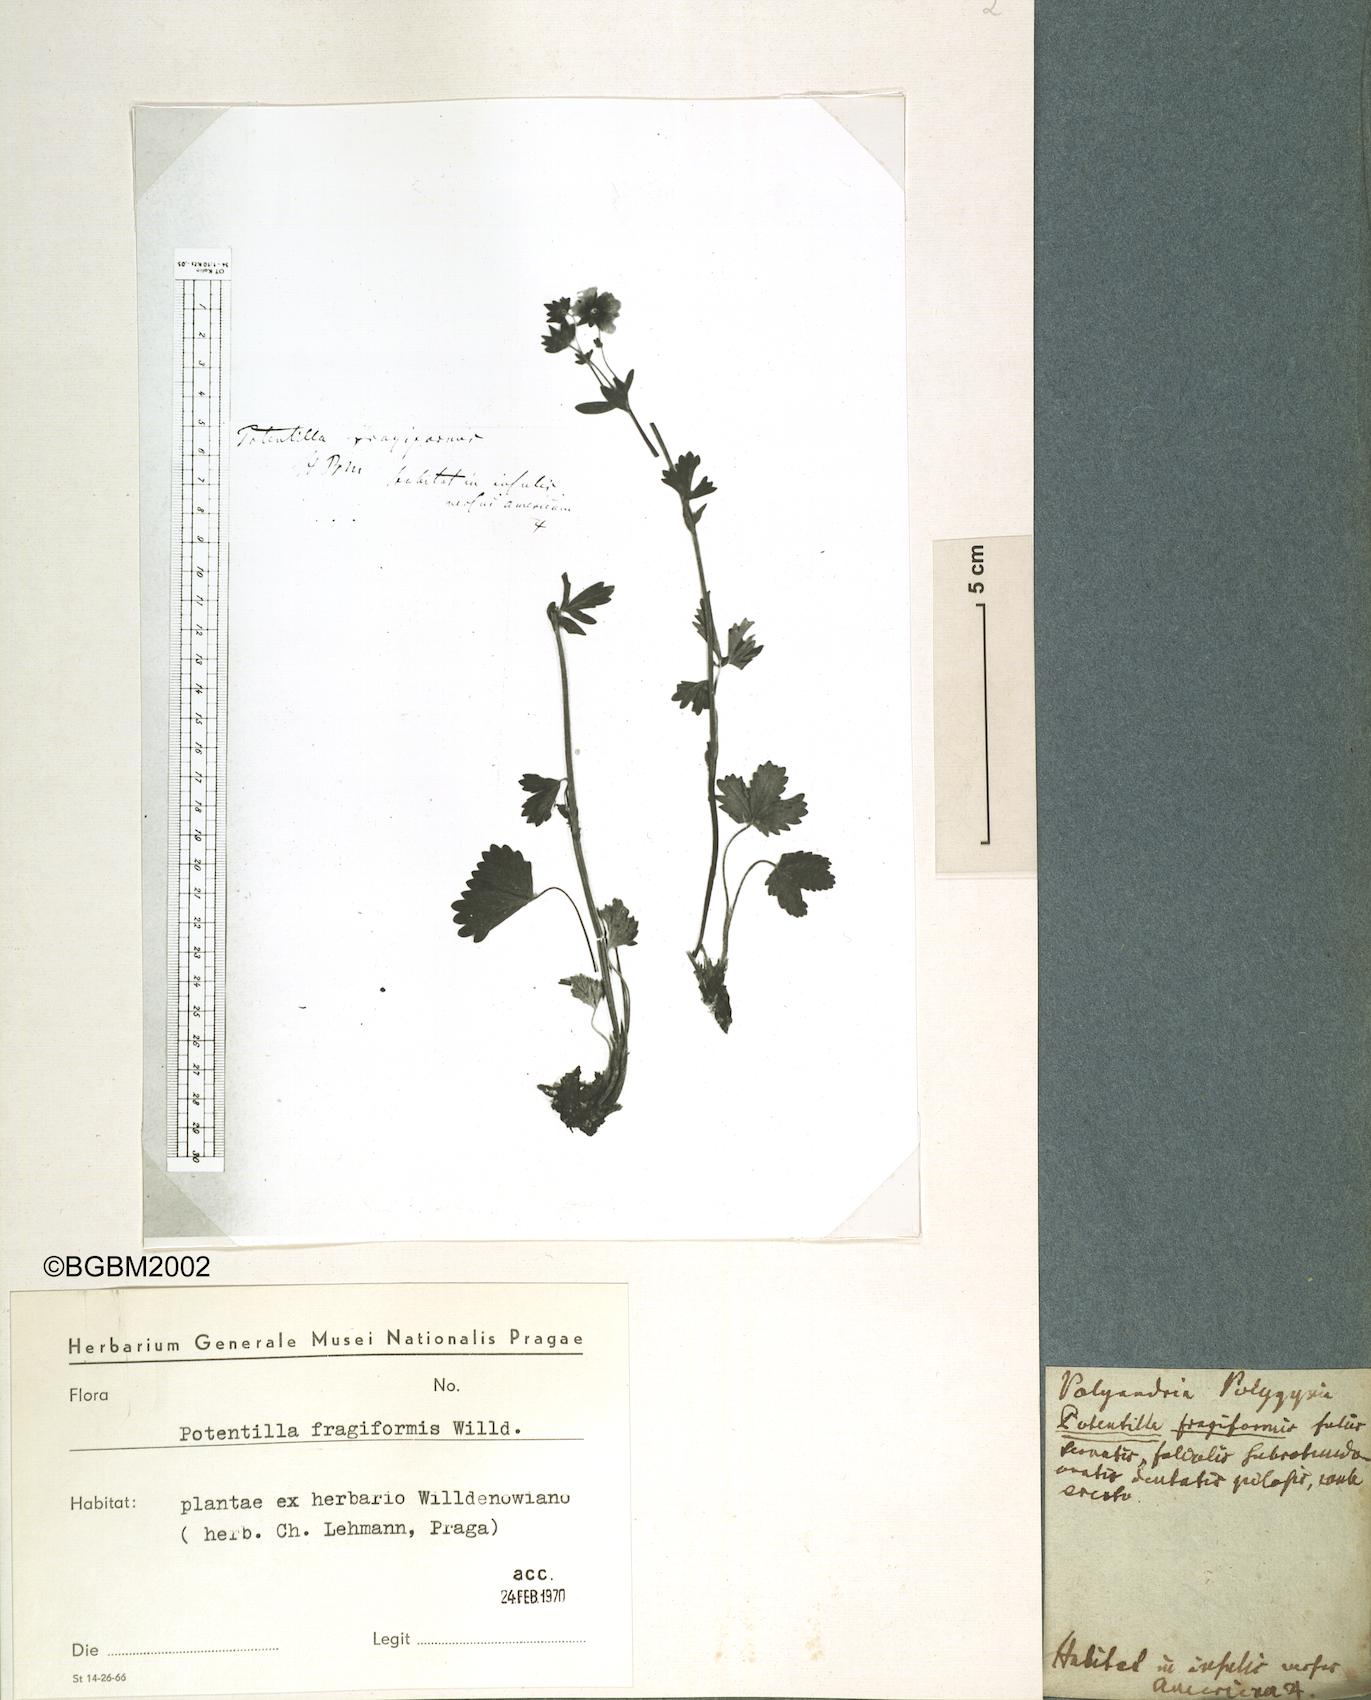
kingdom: Plantae
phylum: Tracheophyta
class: Magnoliopsida
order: Rosales
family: Rosaceae
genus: Potentilla
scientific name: Potentilla fragiformis
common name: Strawberry cinquefoil
